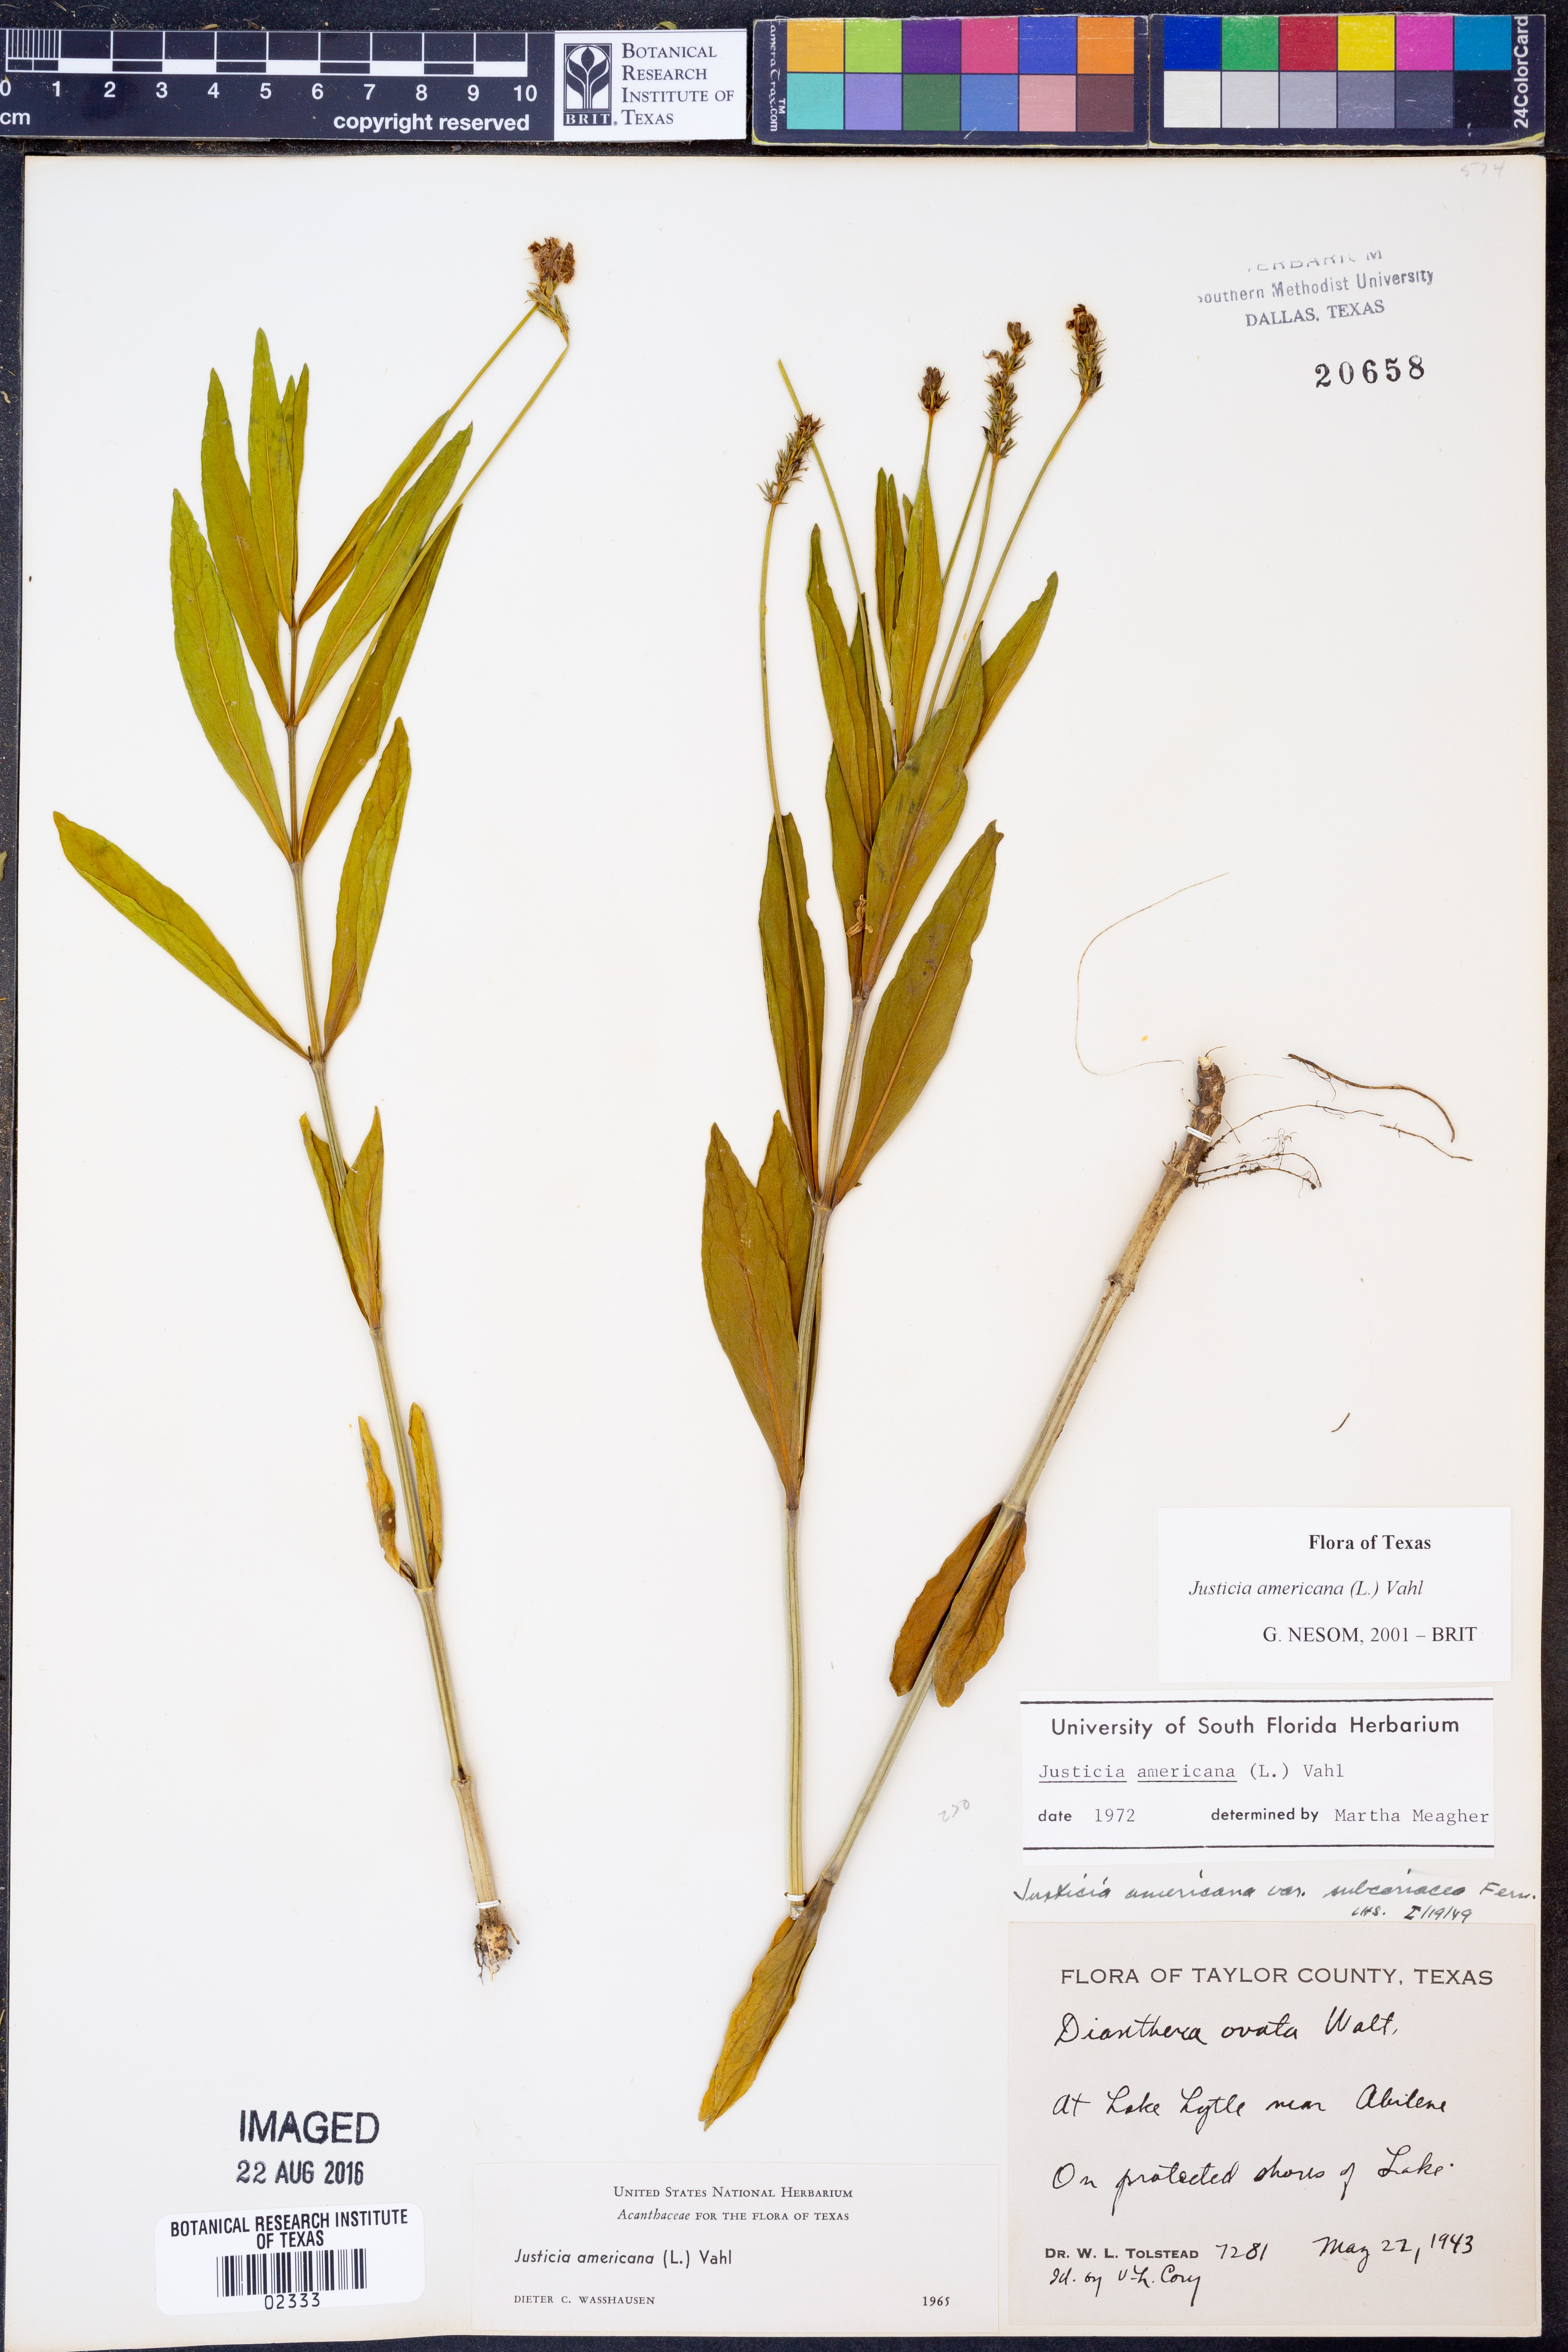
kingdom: Plantae
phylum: Tracheophyta
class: Magnoliopsida
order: Lamiales
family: Acanthaceae
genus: Dianthera
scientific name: Dianthera americana
